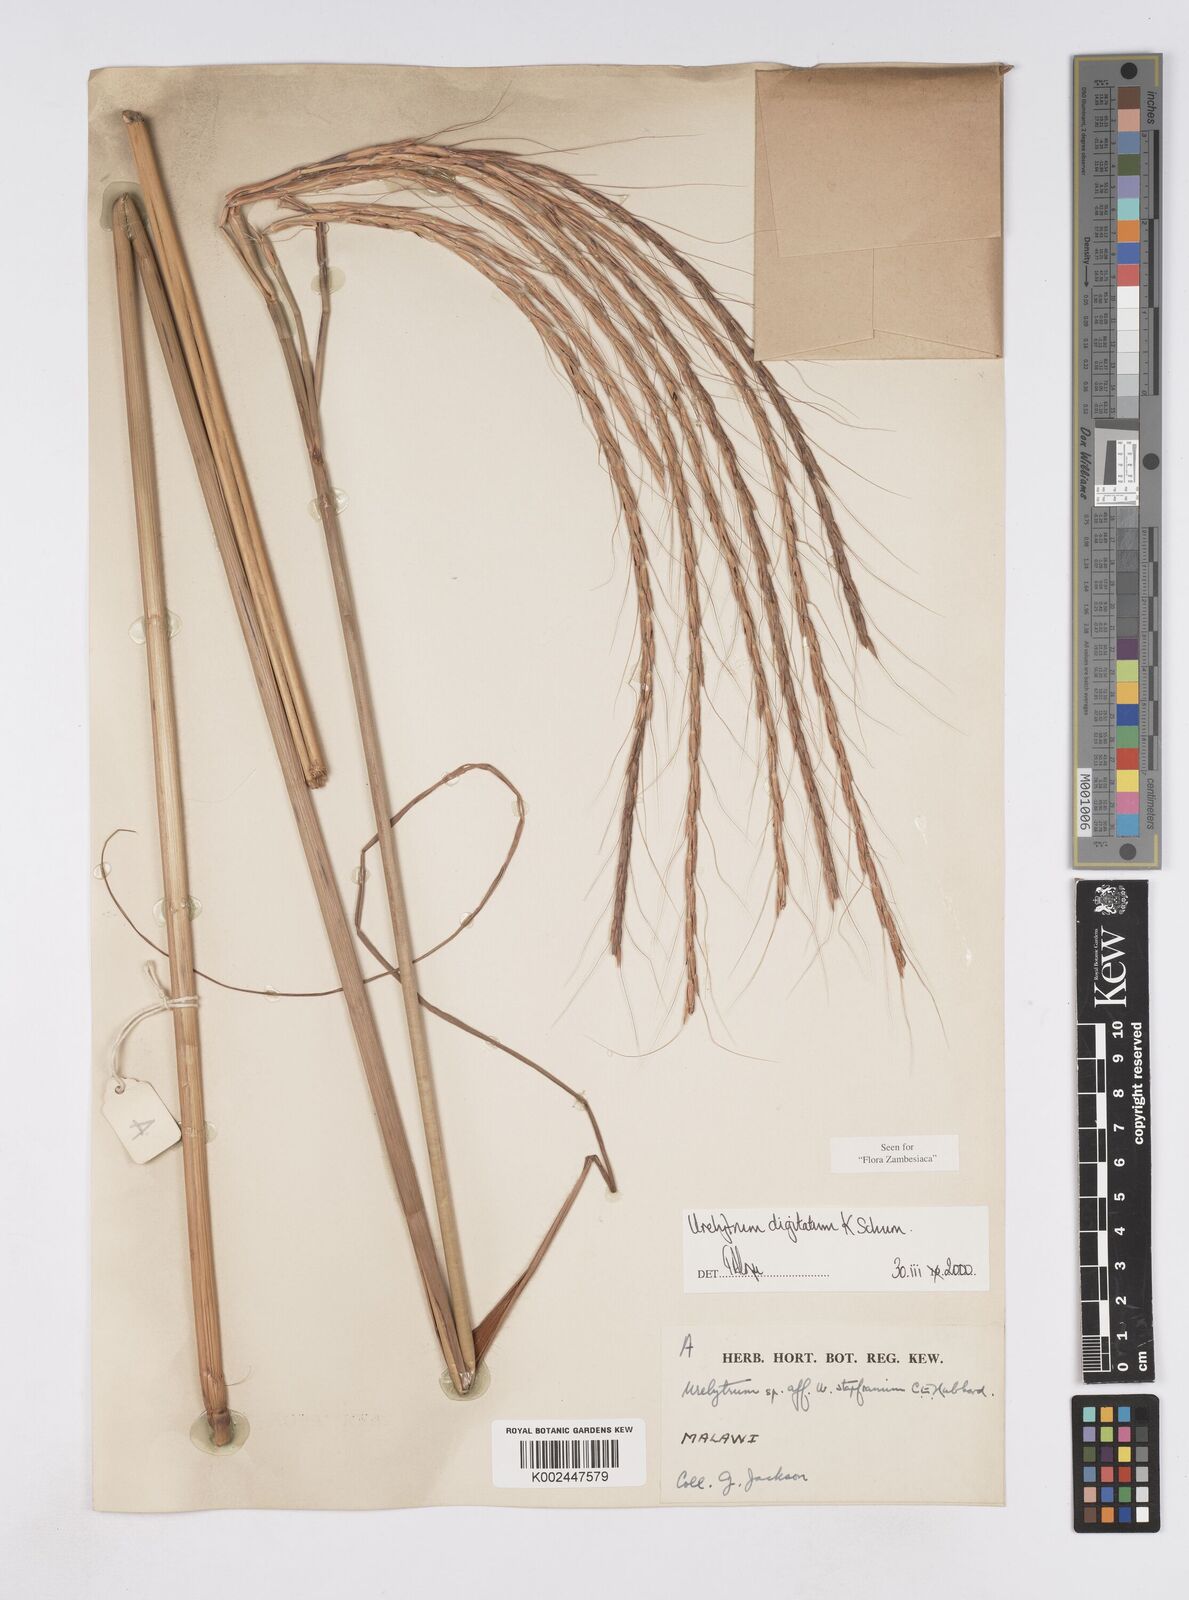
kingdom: Plantae
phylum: Tracheophyta
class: Liliopsida
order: Poales
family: Poaceae
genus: Urelytrum
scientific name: Urelytrum digitatum
